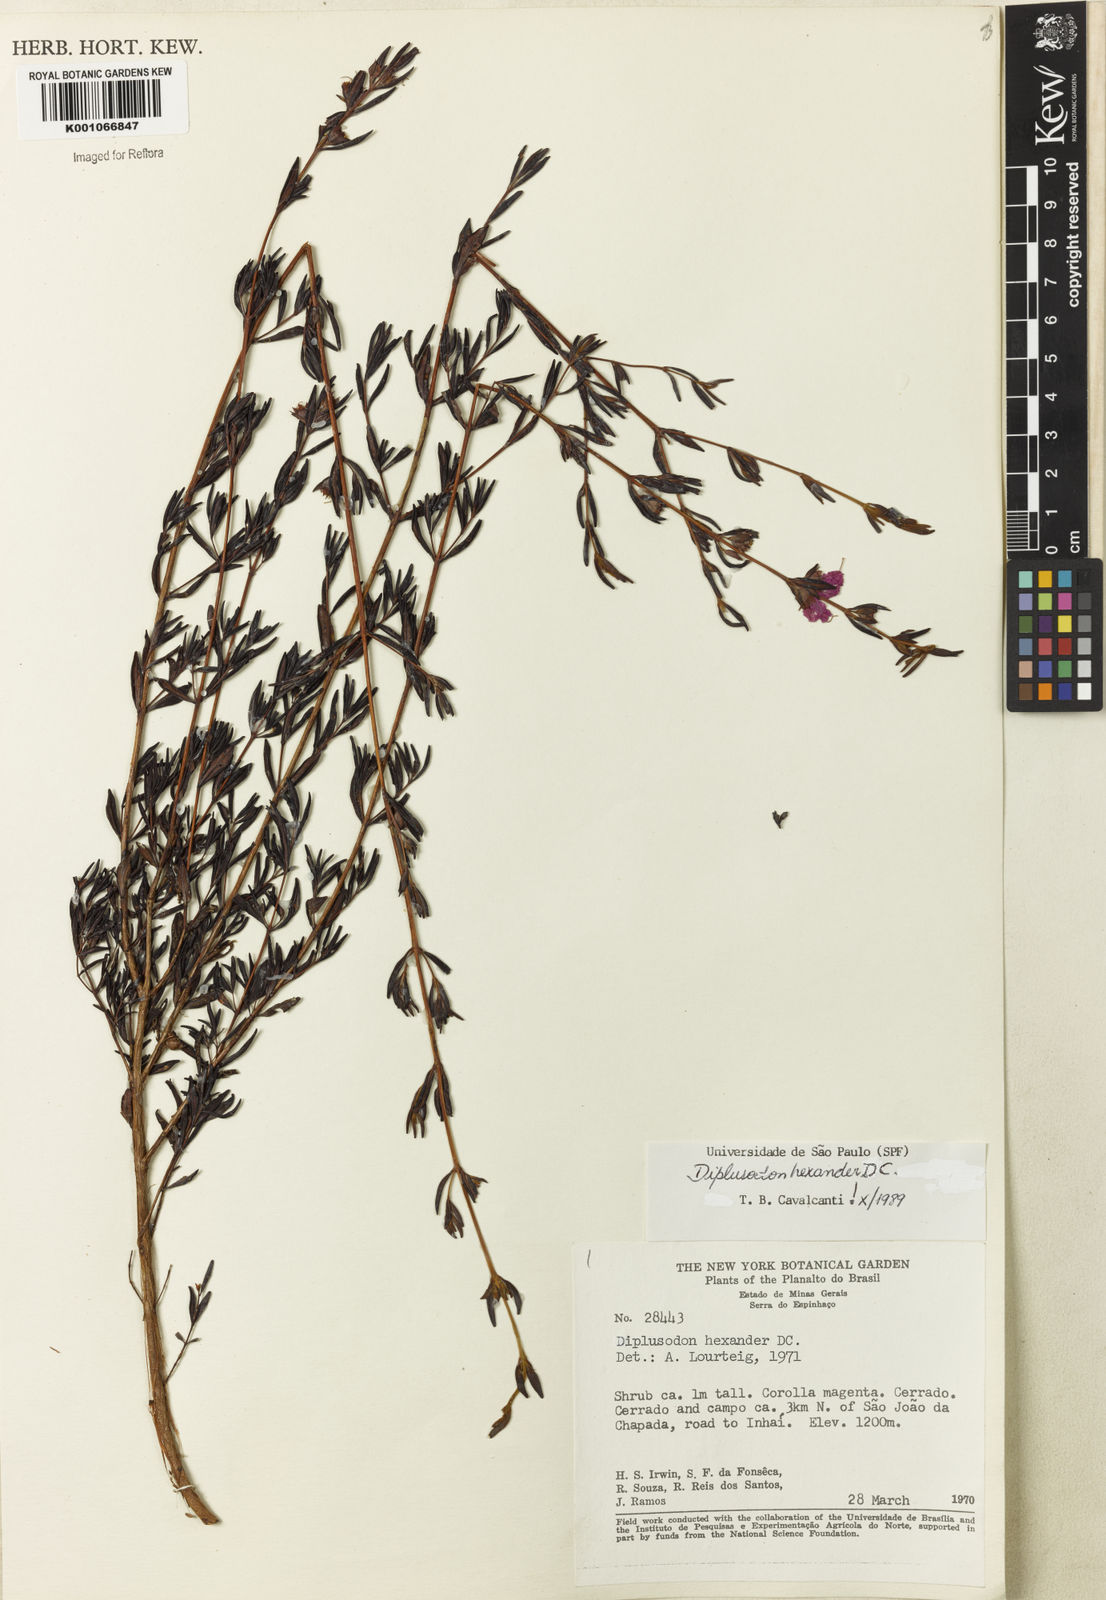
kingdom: Plantae
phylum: Tracheophyta
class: Magnoliopsida
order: Myrtales
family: Lythraceae
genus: Diplusodon
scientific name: Diplusodon hexander
